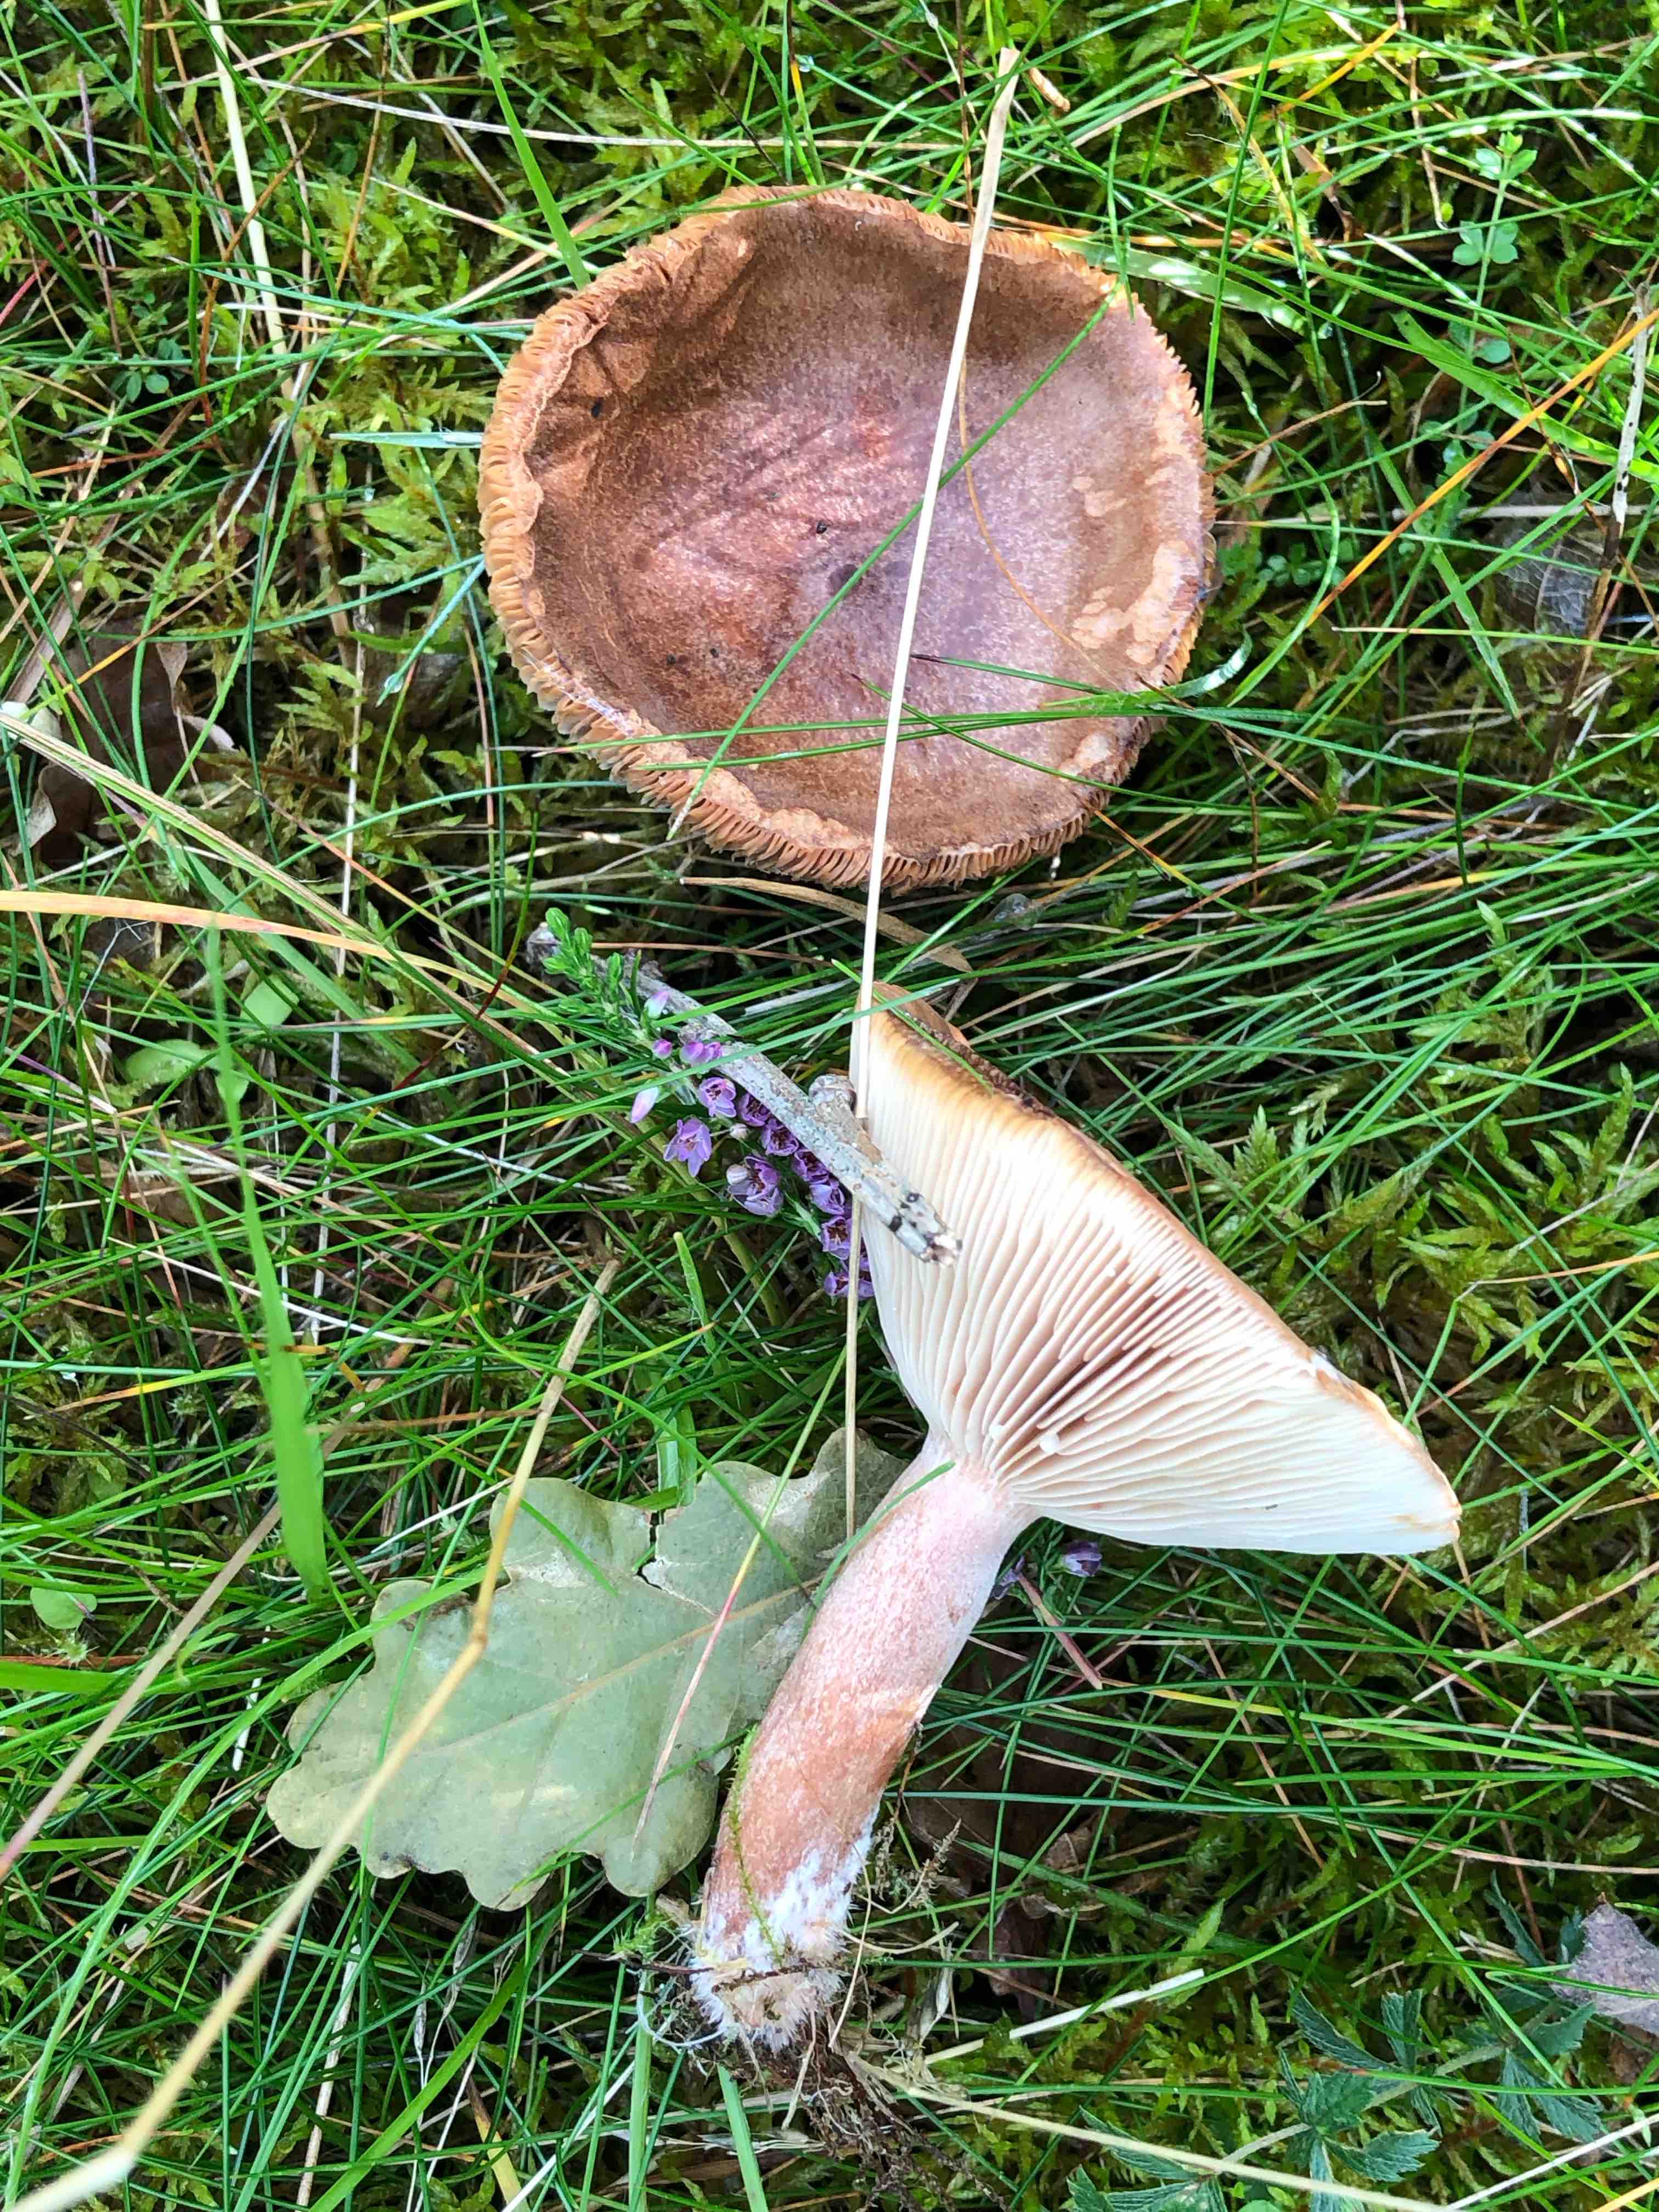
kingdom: Fungi
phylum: Basidiomycota
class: Agaricomycetes
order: Russulales
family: Russulaceae
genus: Lactarius
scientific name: Lactarius quietus
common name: ege-mælkehat
